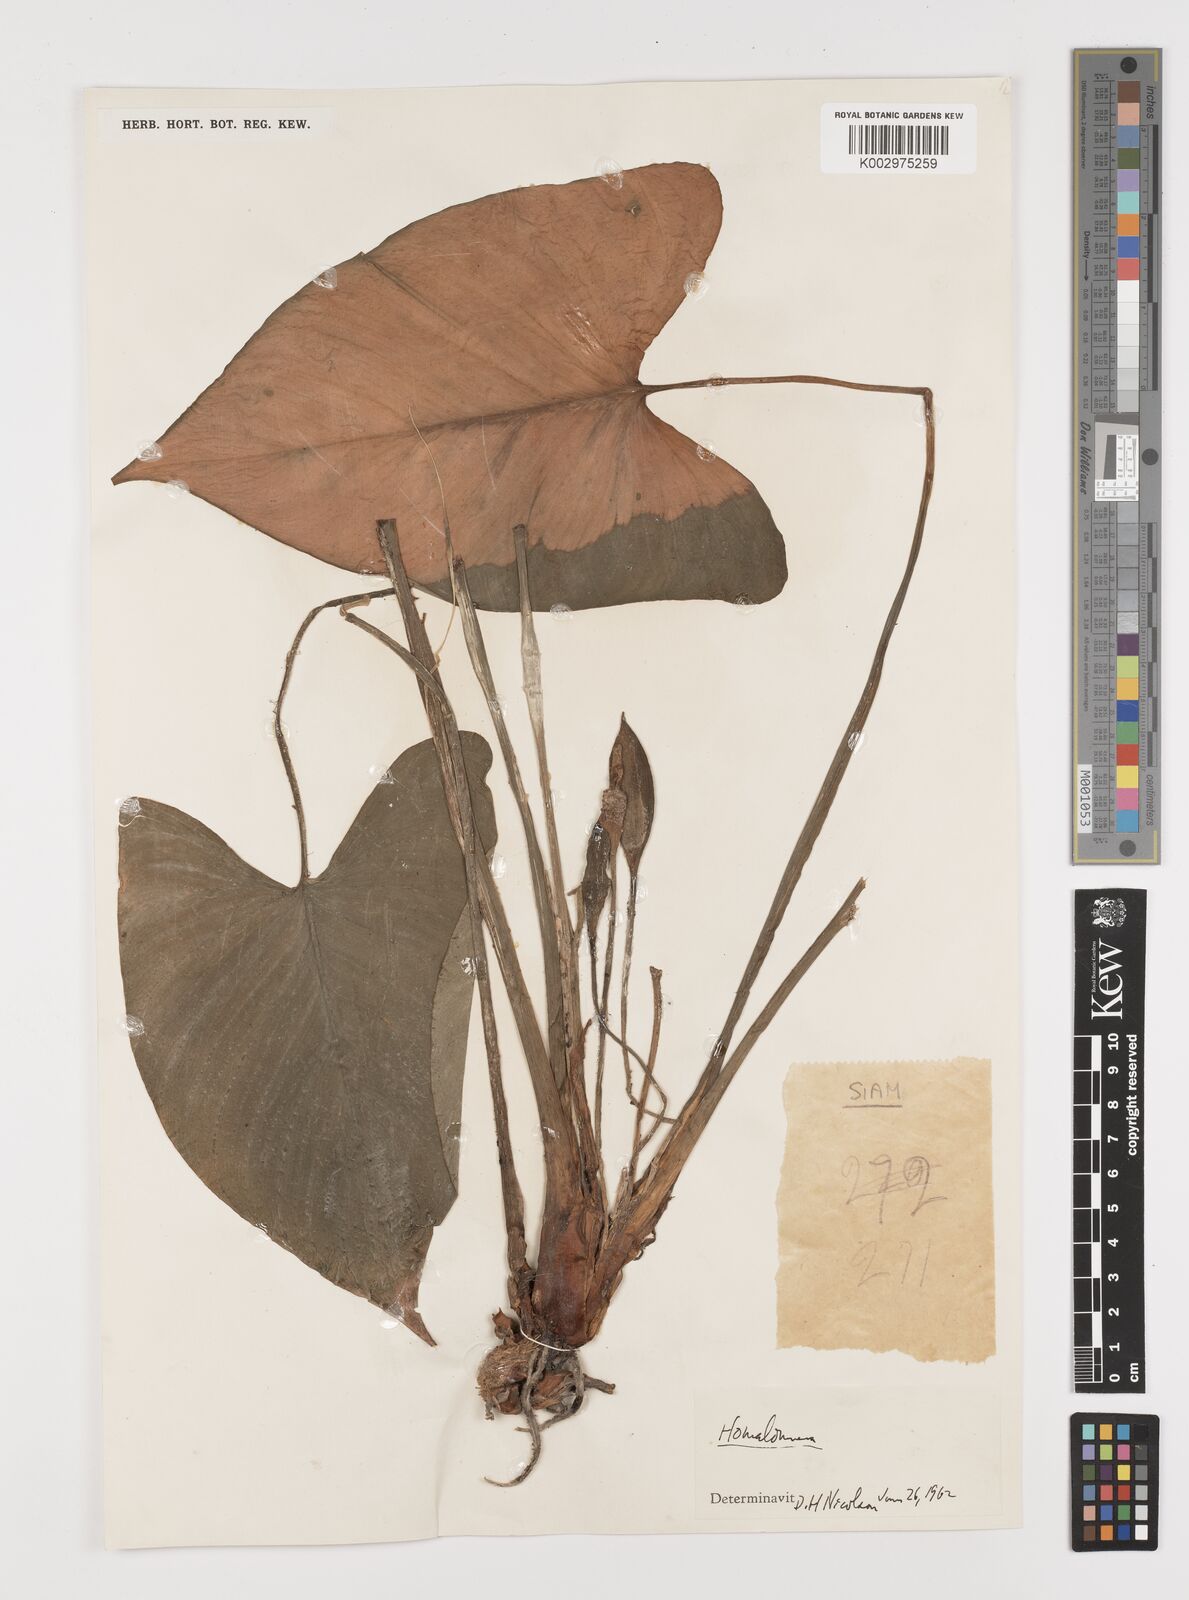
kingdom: Plantae
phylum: Tracheophyta
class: Liliopsida
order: Alismatales
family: Araceae
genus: Homalomena
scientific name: Homalomena
